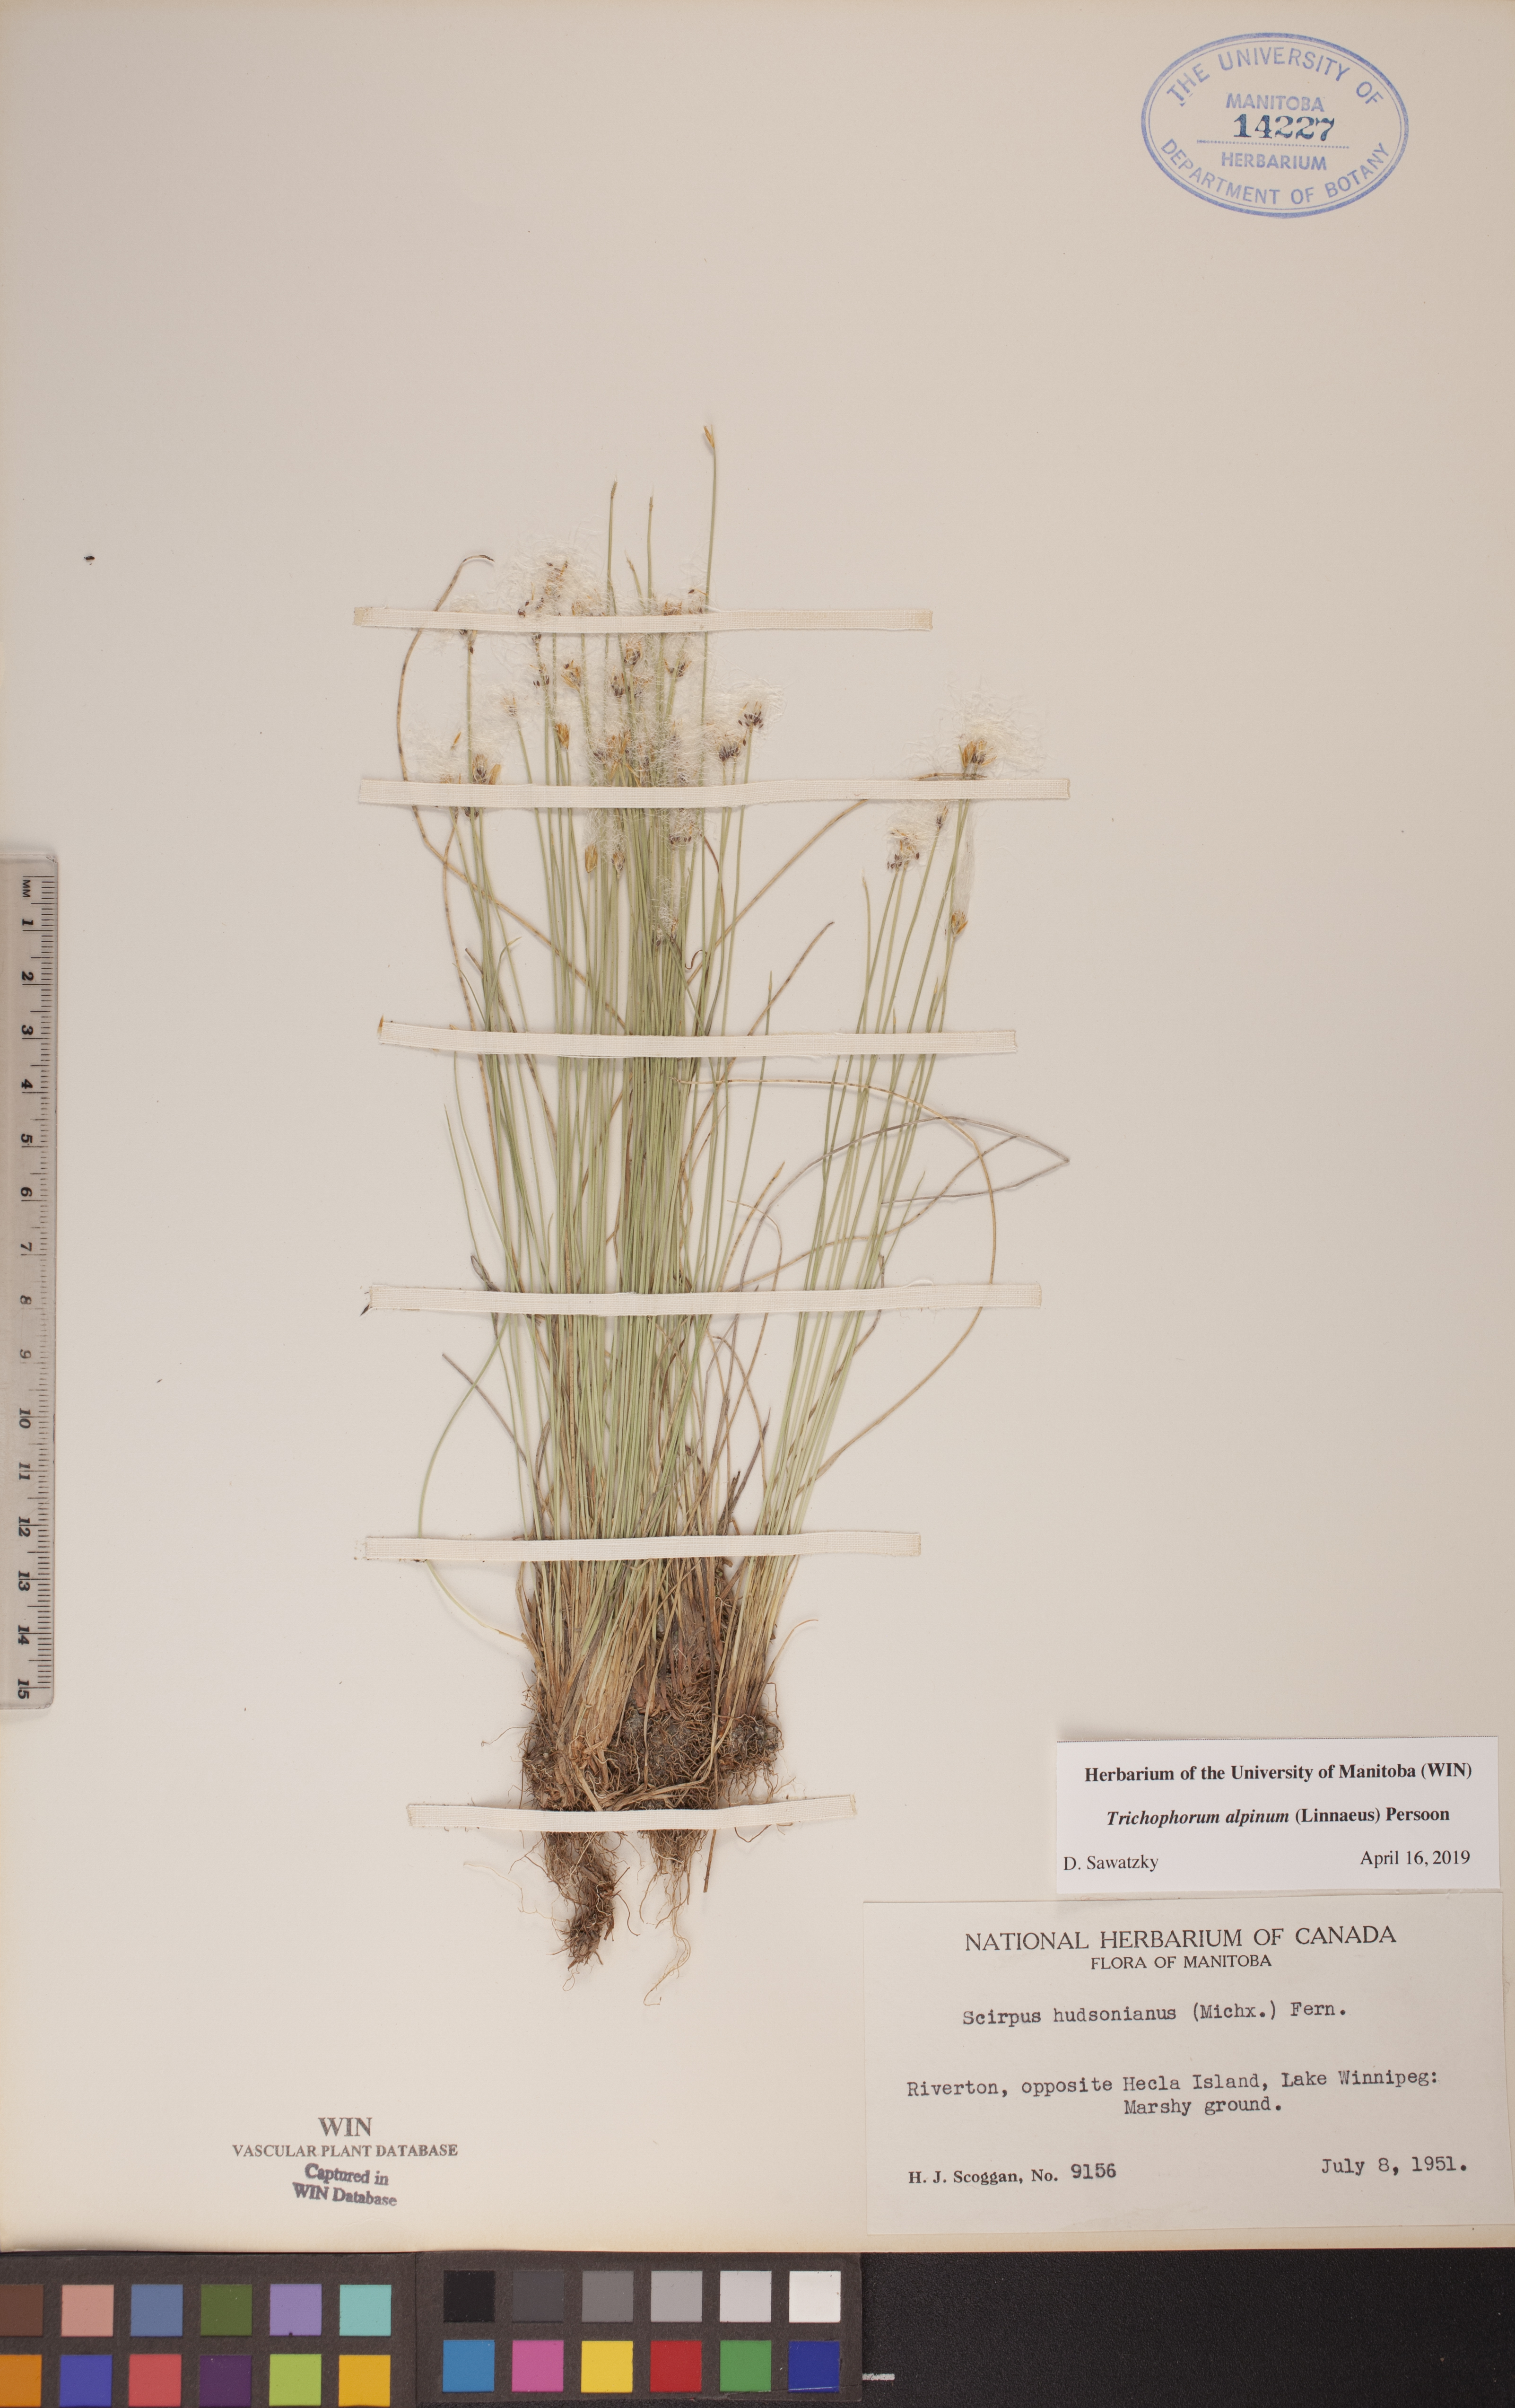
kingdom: Plantae
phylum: Tracheophyta
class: Liliopsida
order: Poales
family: Cyperaceae
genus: Trichophorum
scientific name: Trichophorum alpinum
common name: Alpine bulrush
